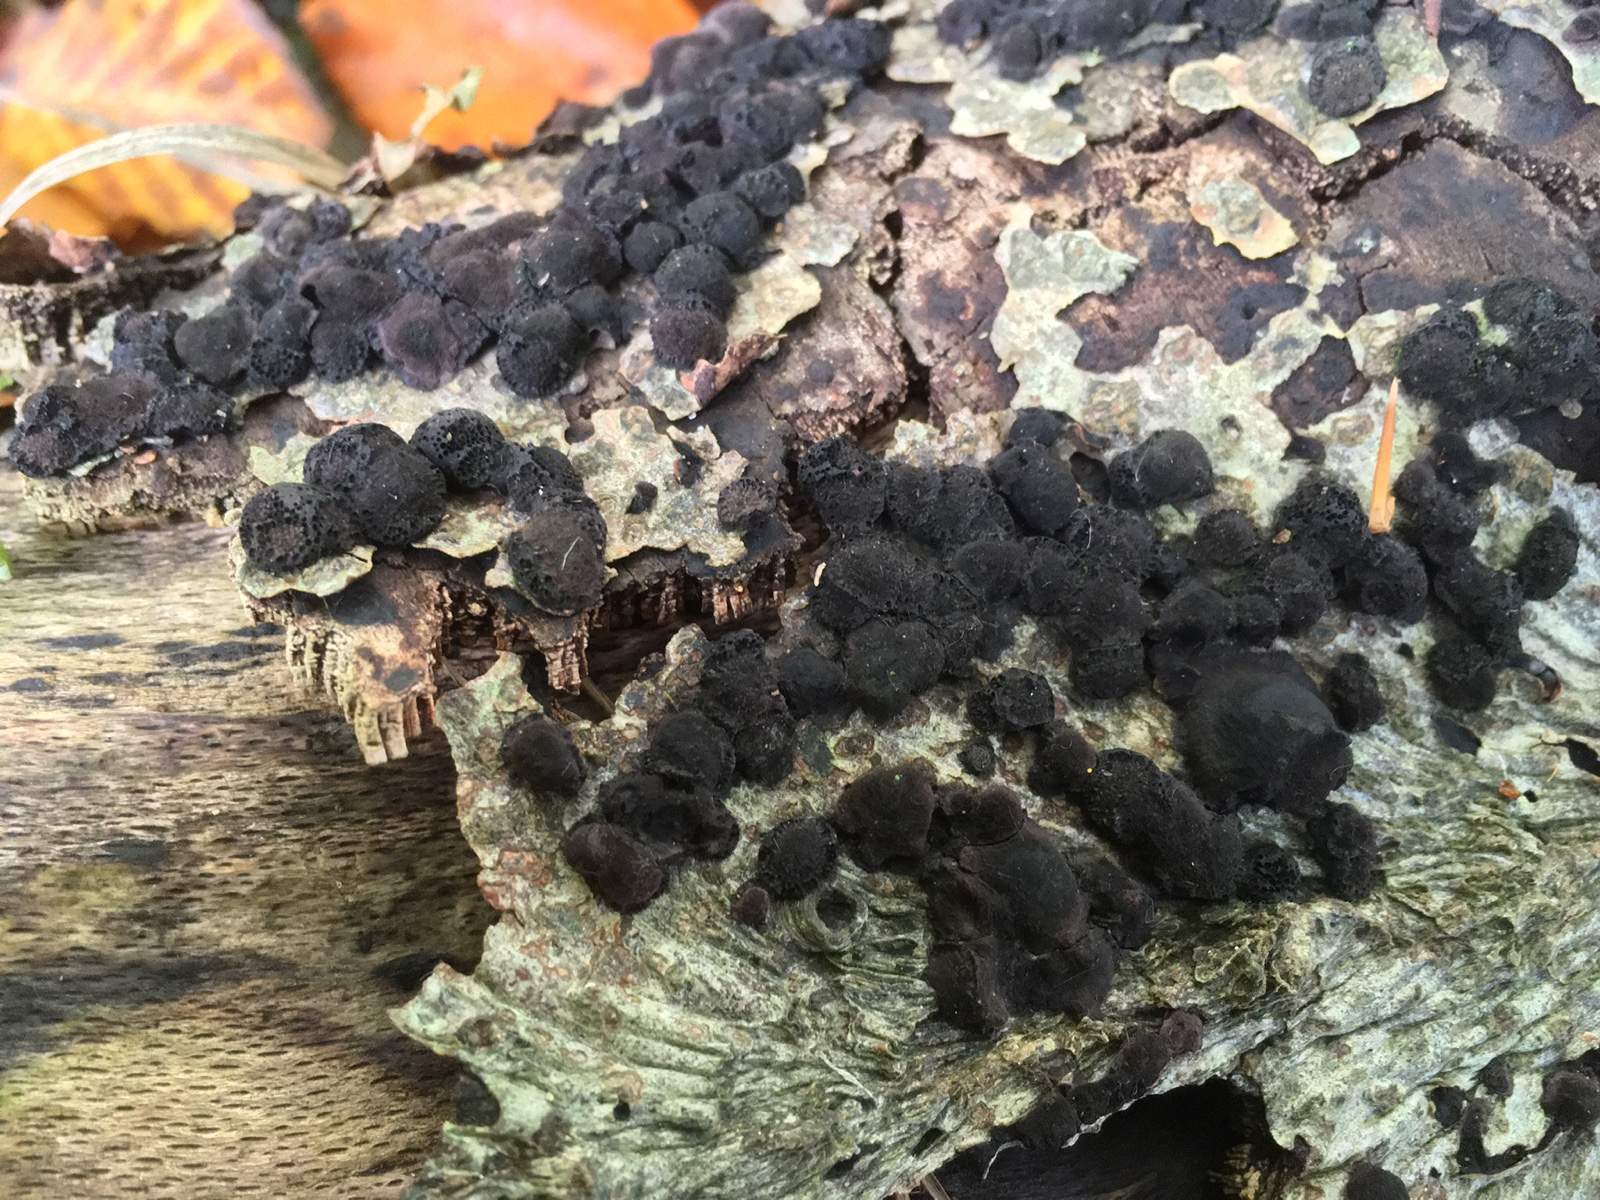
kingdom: Fungi
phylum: Ascomycota
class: Sordariomycetes
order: Xylariales
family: Hypoxylaceae
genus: Jackrogersella
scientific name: Jackrogersella cohaerens
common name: sammenflydende kulbær
